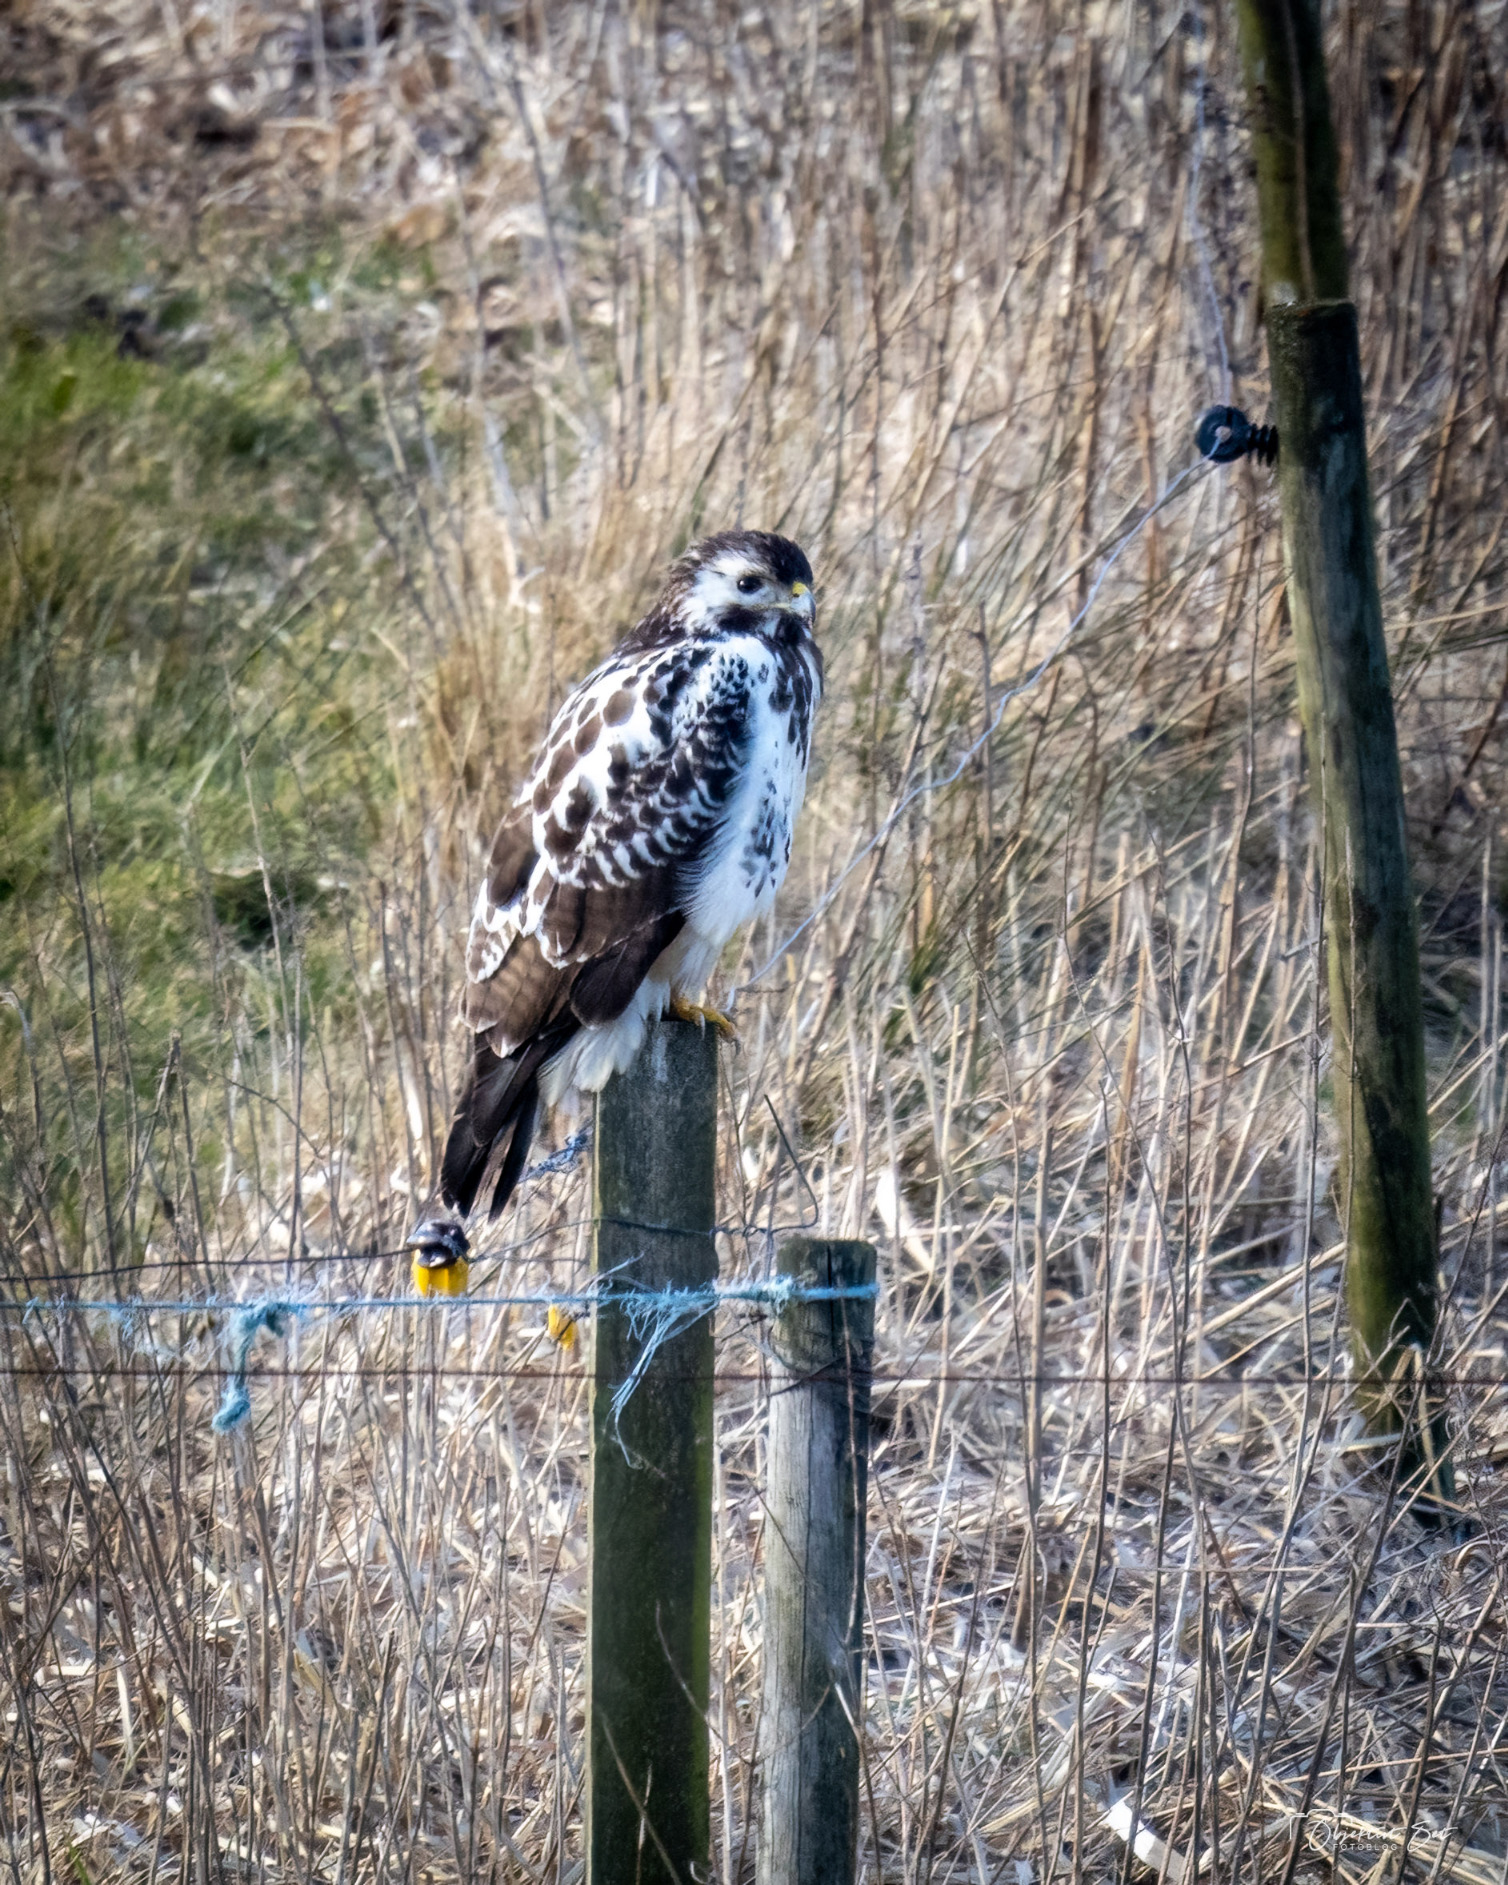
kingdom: Animalia
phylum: Chordata
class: Aves
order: Accipitriformes
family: Accipitridae
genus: Buteo
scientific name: Buteo buteo
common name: Musvåge
